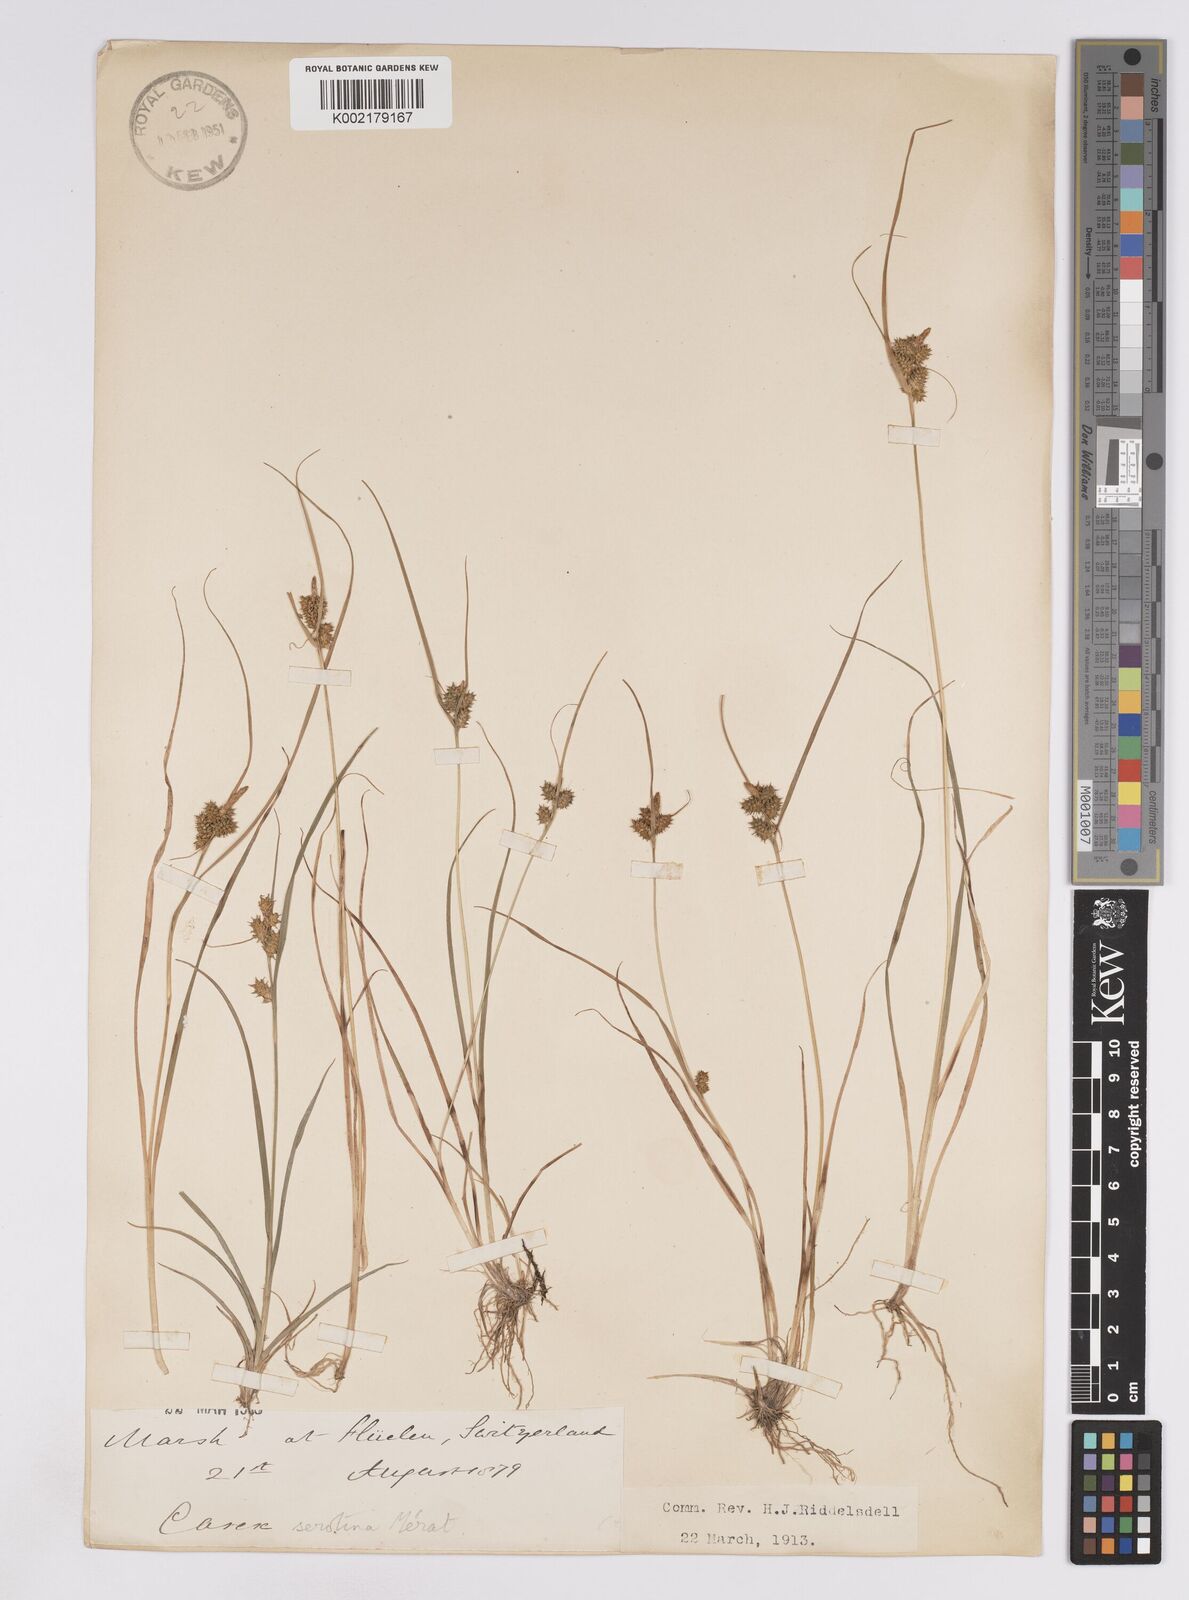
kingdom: Plantae
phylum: Tracheophyta
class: Liliopsida
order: Poales
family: Cyperaceae
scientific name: Cyperaceae
